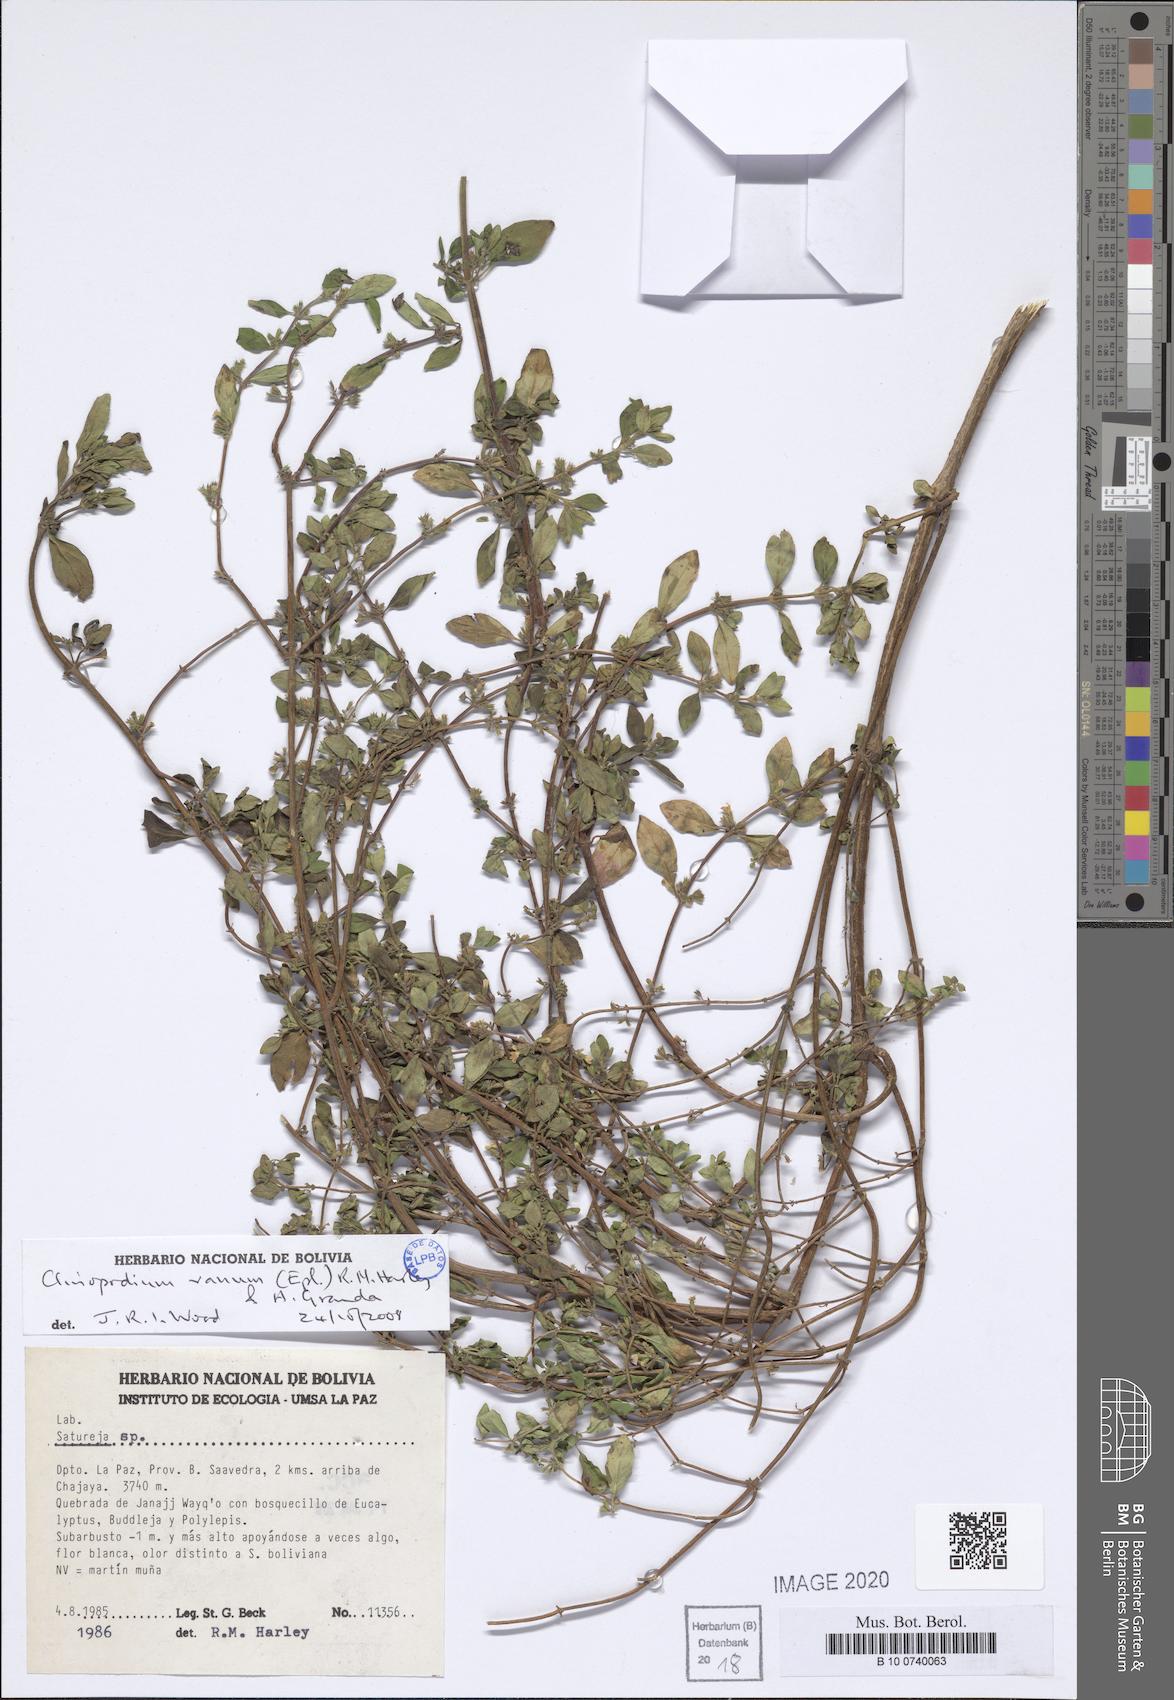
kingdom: Plantae
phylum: Tracheophyta
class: Magnoliopsida
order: Lamiales
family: Lamiaceae
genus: Clinopodium
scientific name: Clinopodium vanum
